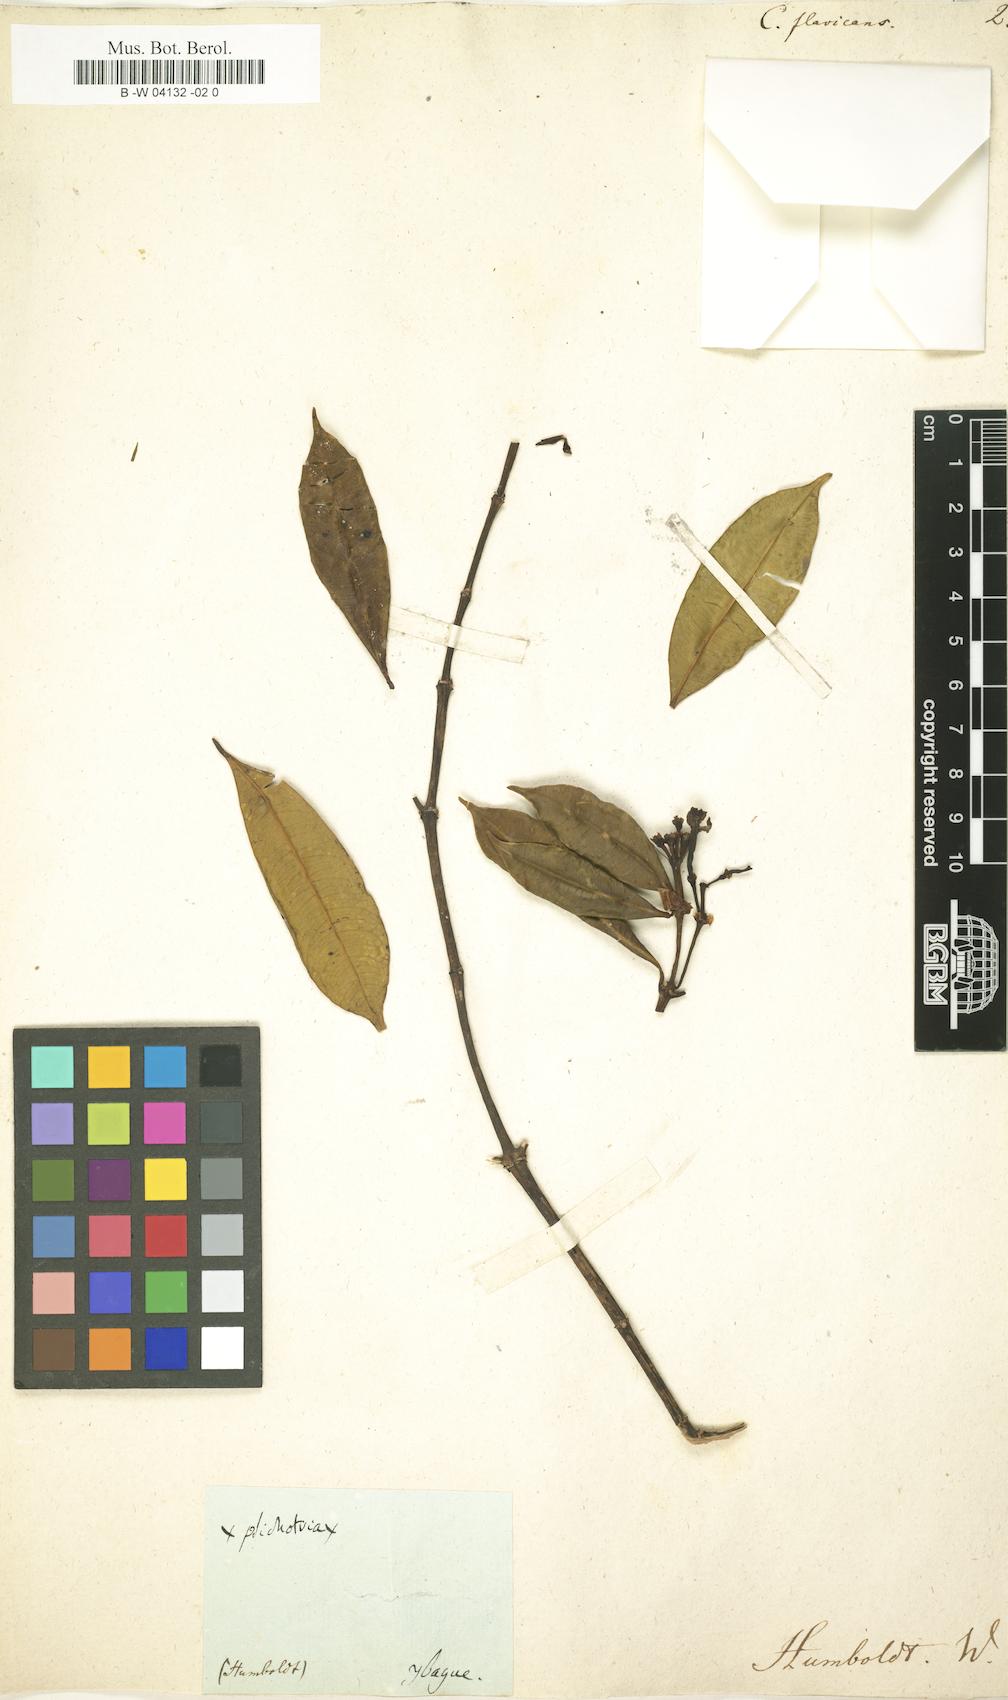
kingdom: Plantae
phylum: Tracheophyta
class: Magnoliopsida
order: Gentianales
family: Rubiaceae
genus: Faramea
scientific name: Faramea jasminoides
